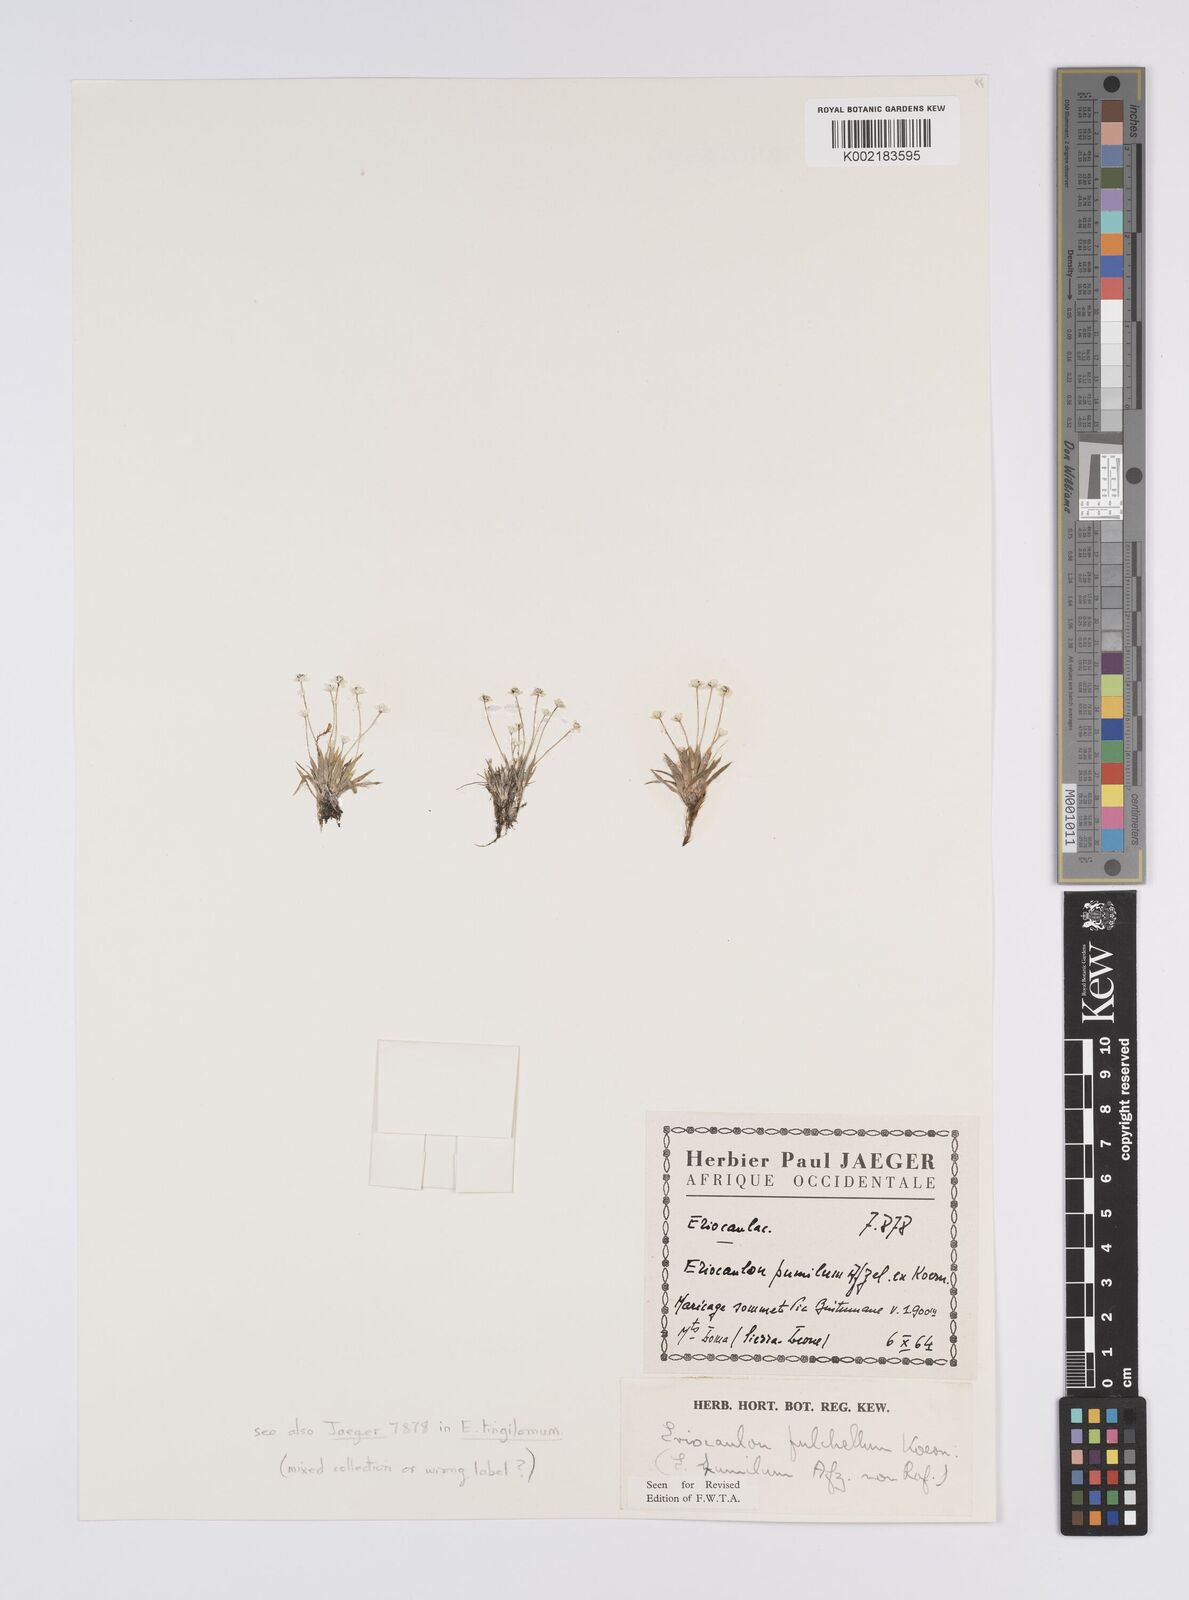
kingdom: Plantae
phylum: Tracheophyta
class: Liliopsida
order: Poales
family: Eriocaulaceae
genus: Eriocaulon
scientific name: Eriocaulon pulchellum
